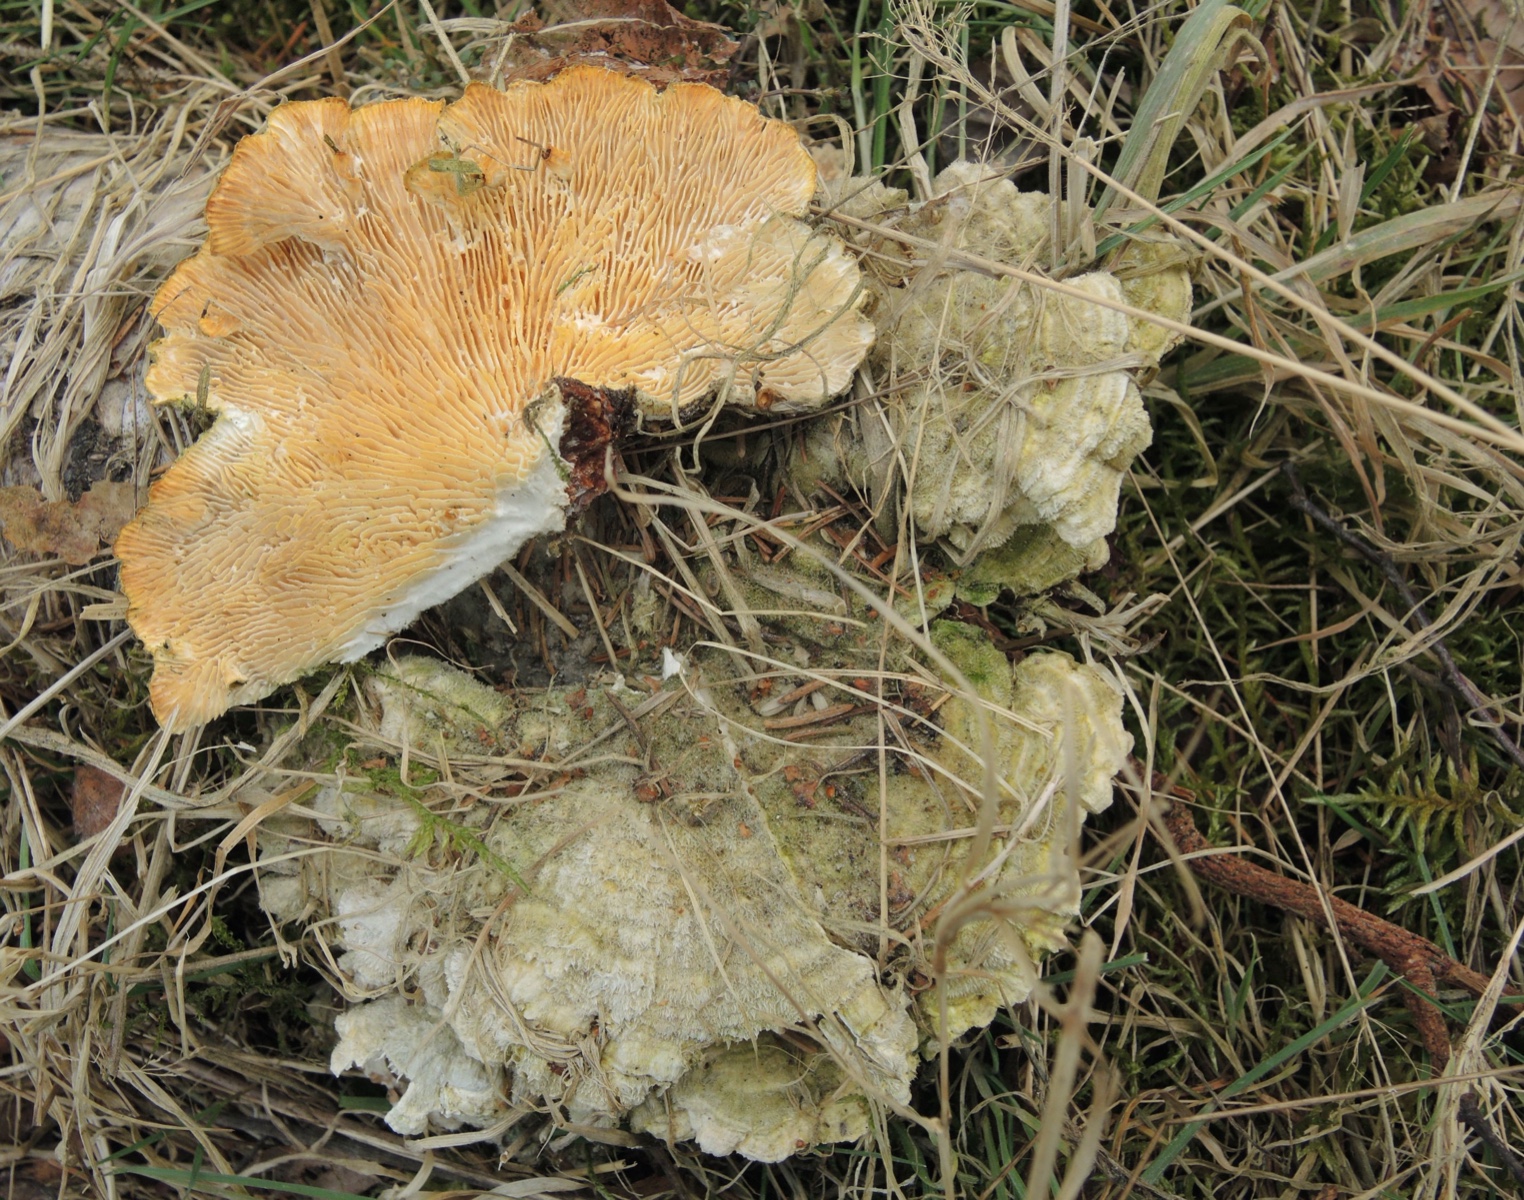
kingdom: Fungi
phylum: Basidiomycota
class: Agaricomycetes
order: Polyporales
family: Polyporaceae
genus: Lenzites
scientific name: Lenzites betulinus
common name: birke-læderporesvamp
